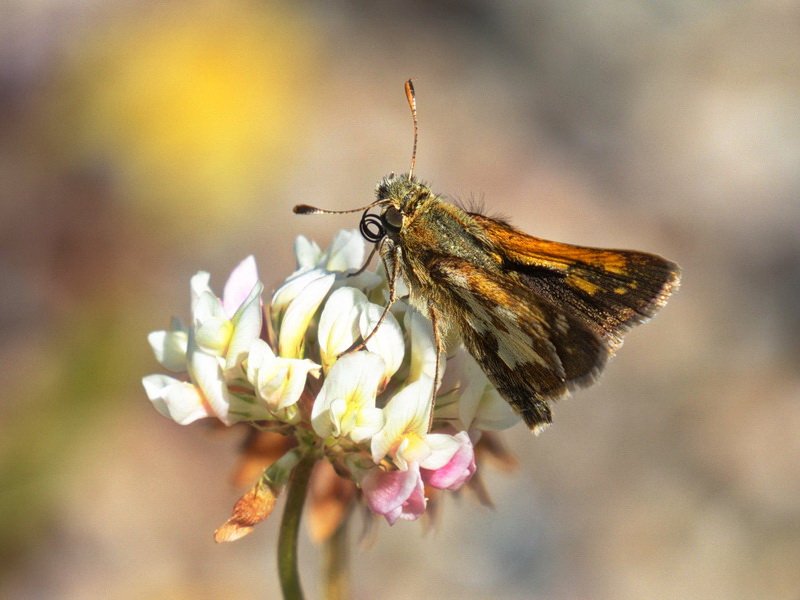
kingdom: Animalia
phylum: Arthropoda
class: Insecta
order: Lepidoptera
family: Hesperiidae
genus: Polites
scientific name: Polites coras
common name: Peck's Skipper
